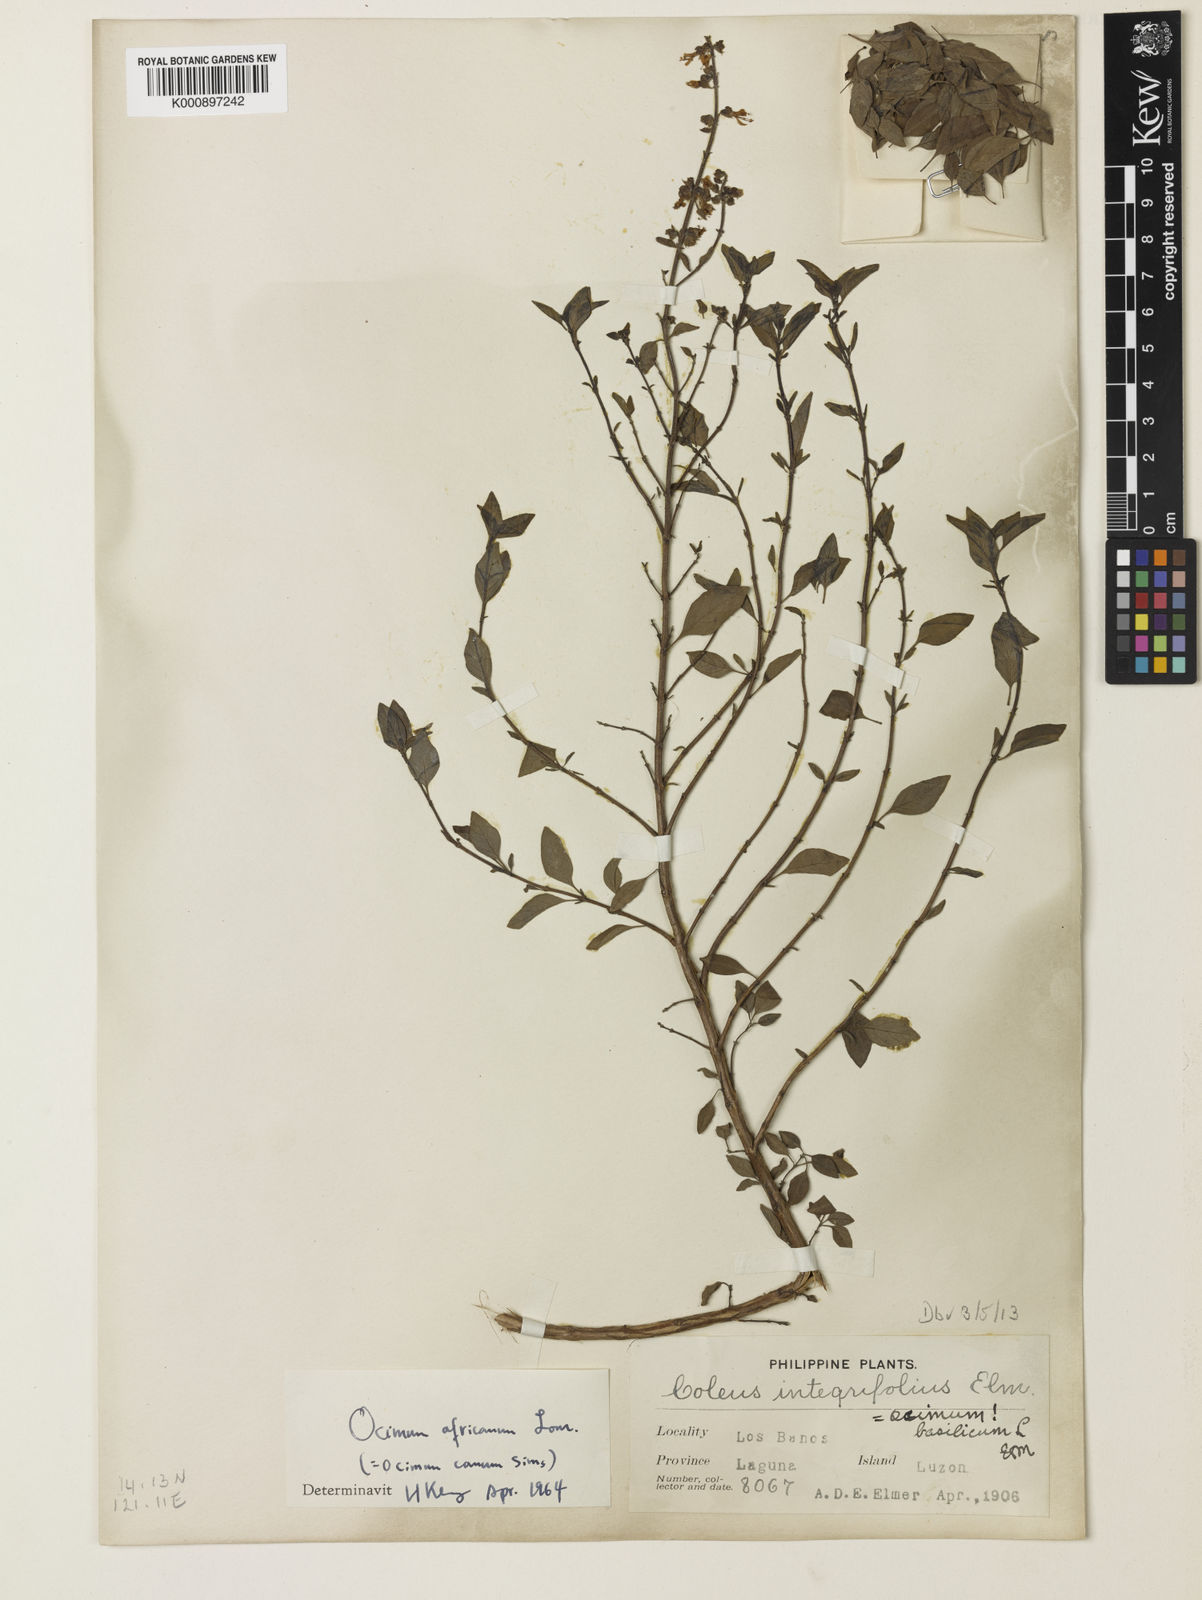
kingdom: Plantae
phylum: Tracheophyta
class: Magnoliopsida
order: Lamiales
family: Lamiaceae
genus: Ocimum
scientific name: Ocimum americanum
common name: American basil
